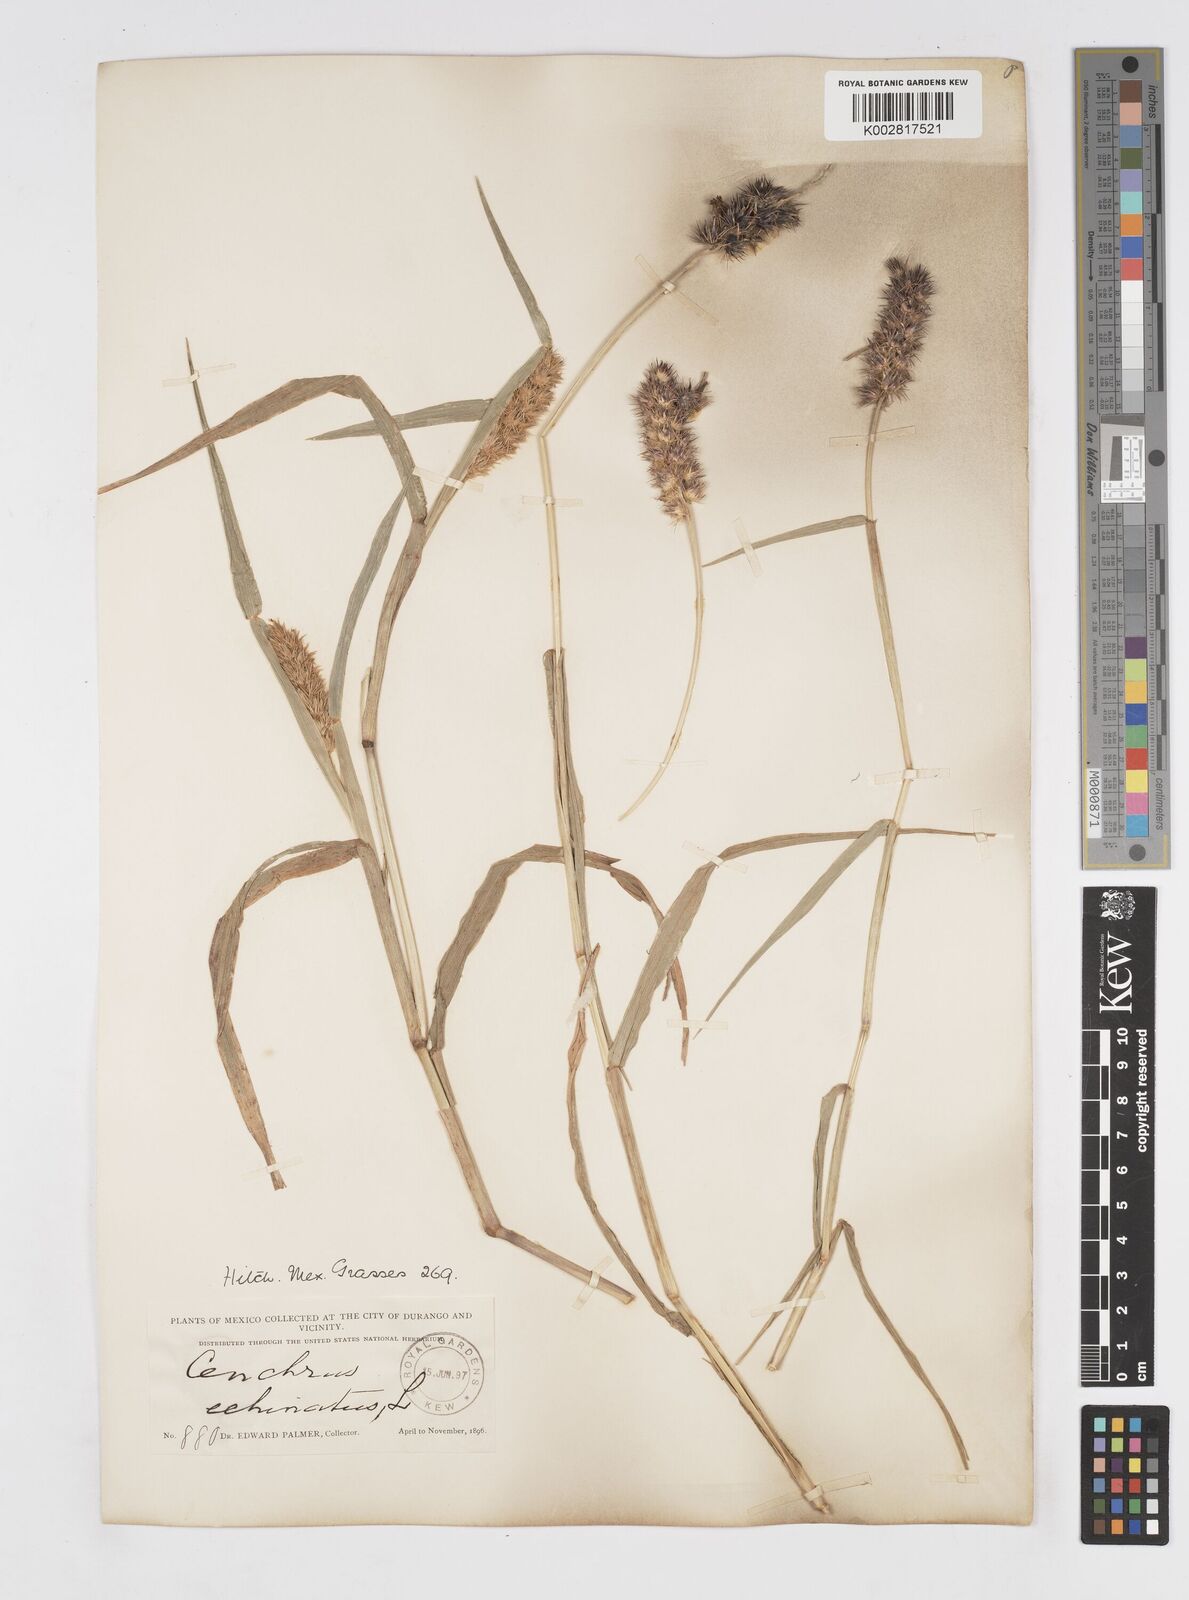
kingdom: Plantae
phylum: Tracheophyta
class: Liliopsida
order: Poales
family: Poaceae
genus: Cenchrus
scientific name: Cenchrus
